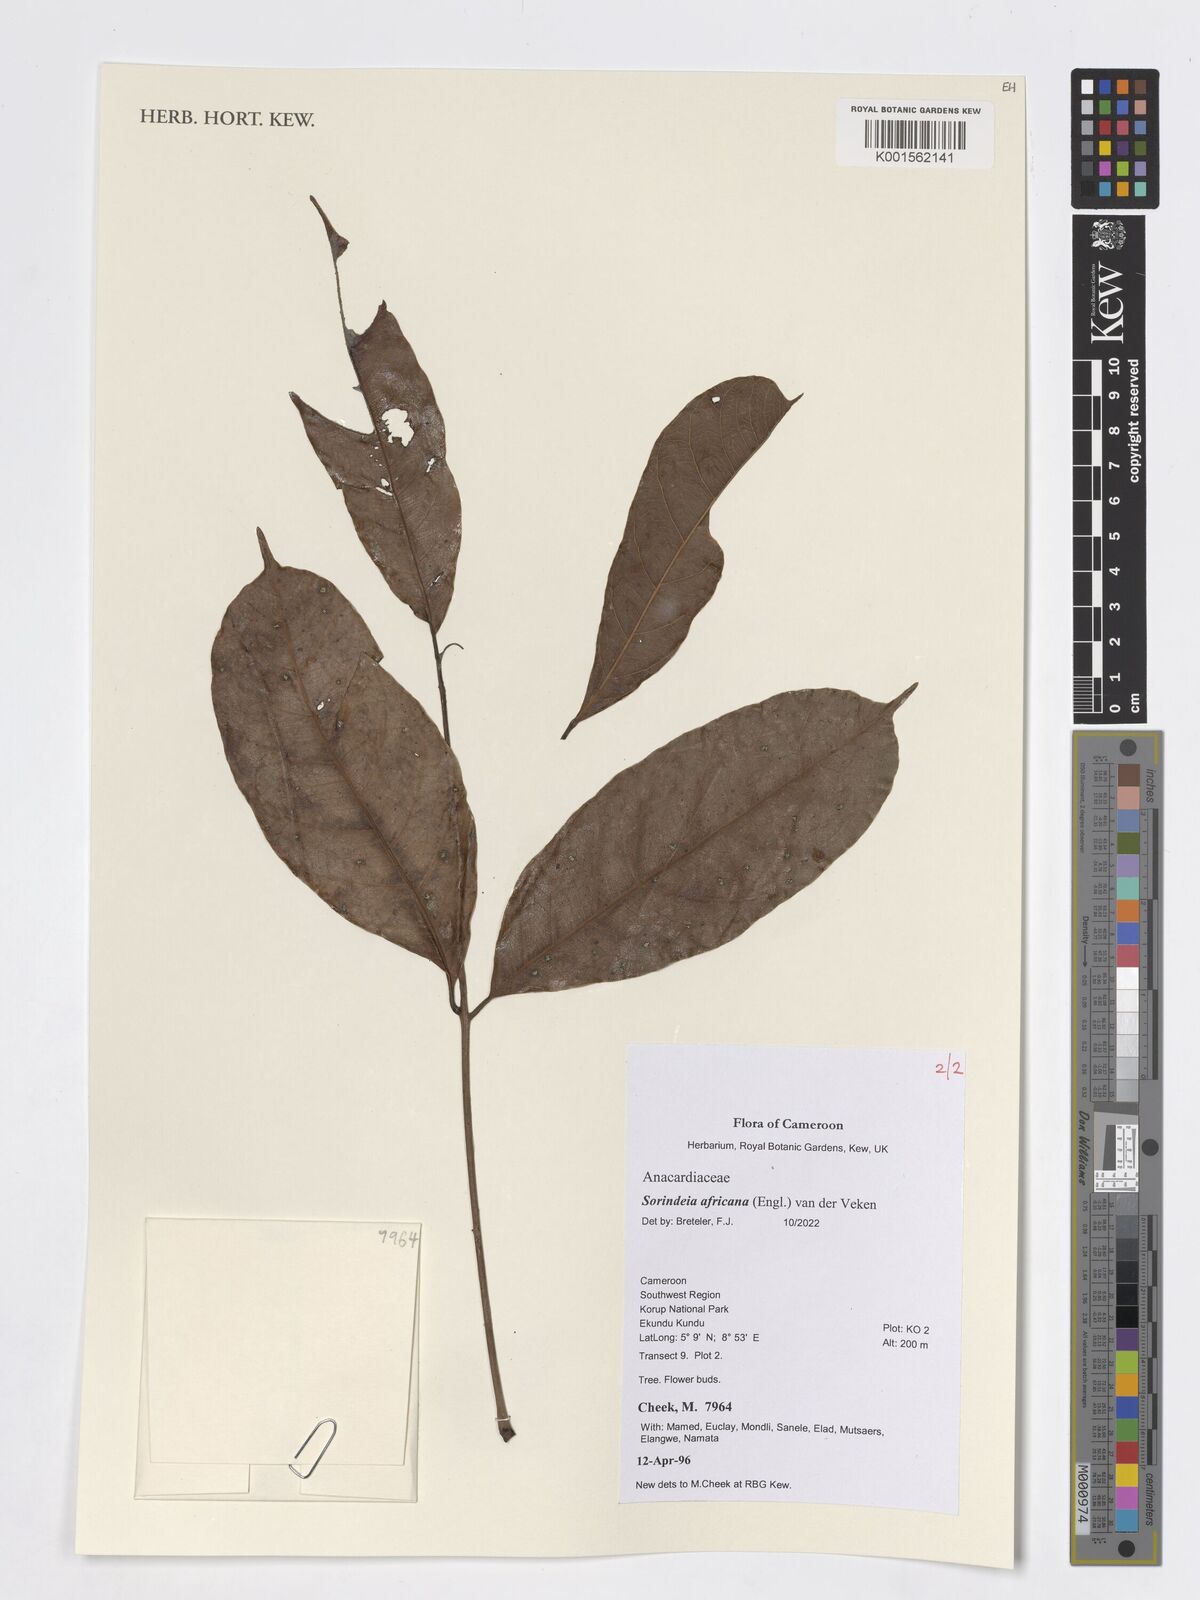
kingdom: Plantae
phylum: Tracheophyta
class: Magnoliopsida
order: Sapindales
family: Anacardiaceae
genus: Sorindeia
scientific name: Sorindeia africana
